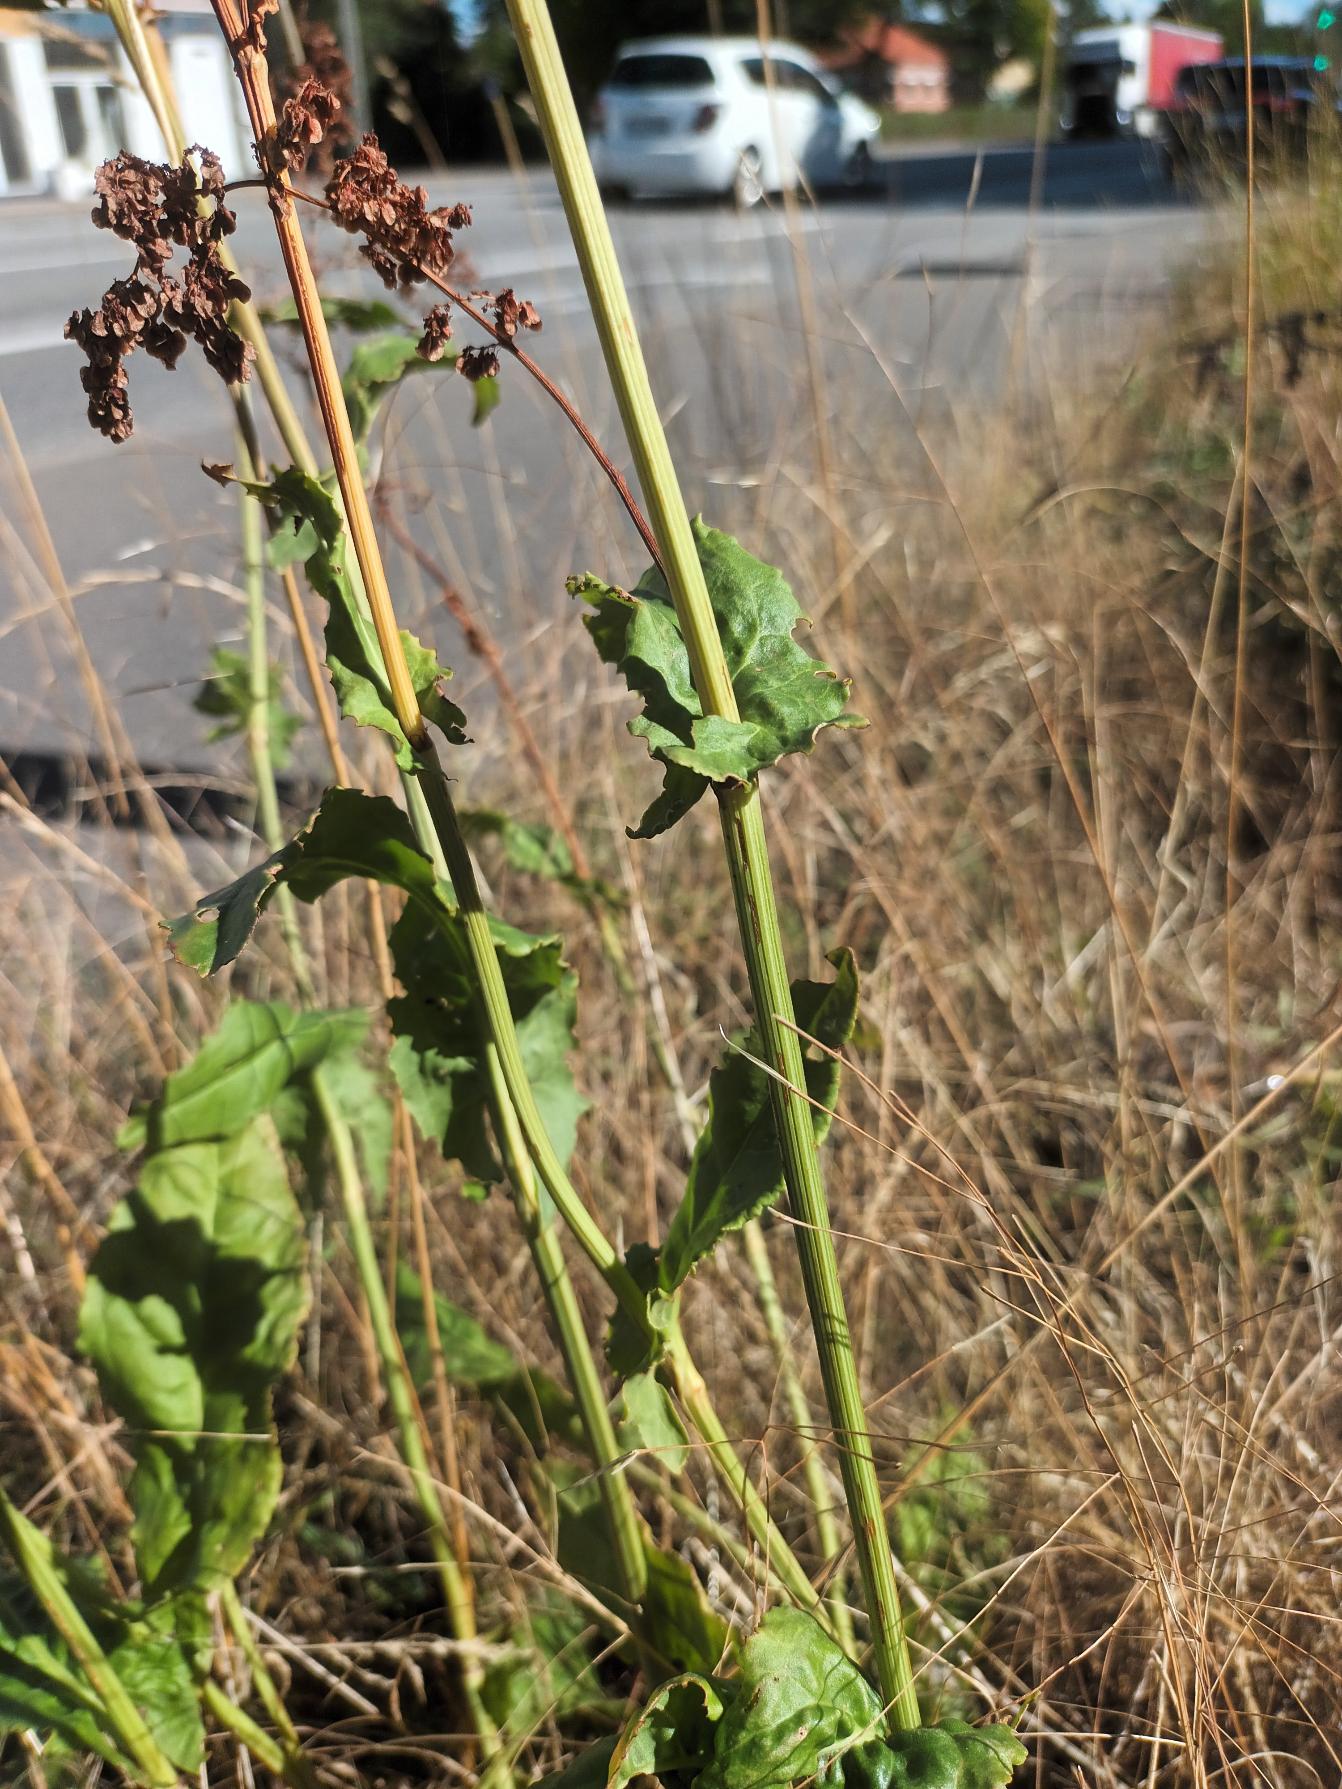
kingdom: Plantae
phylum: Tracheophyta
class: Magnoliopsida
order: Caryophyllales
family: Polygonaceae
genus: Rumex
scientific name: Rumex rugosus
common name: Have-syre
